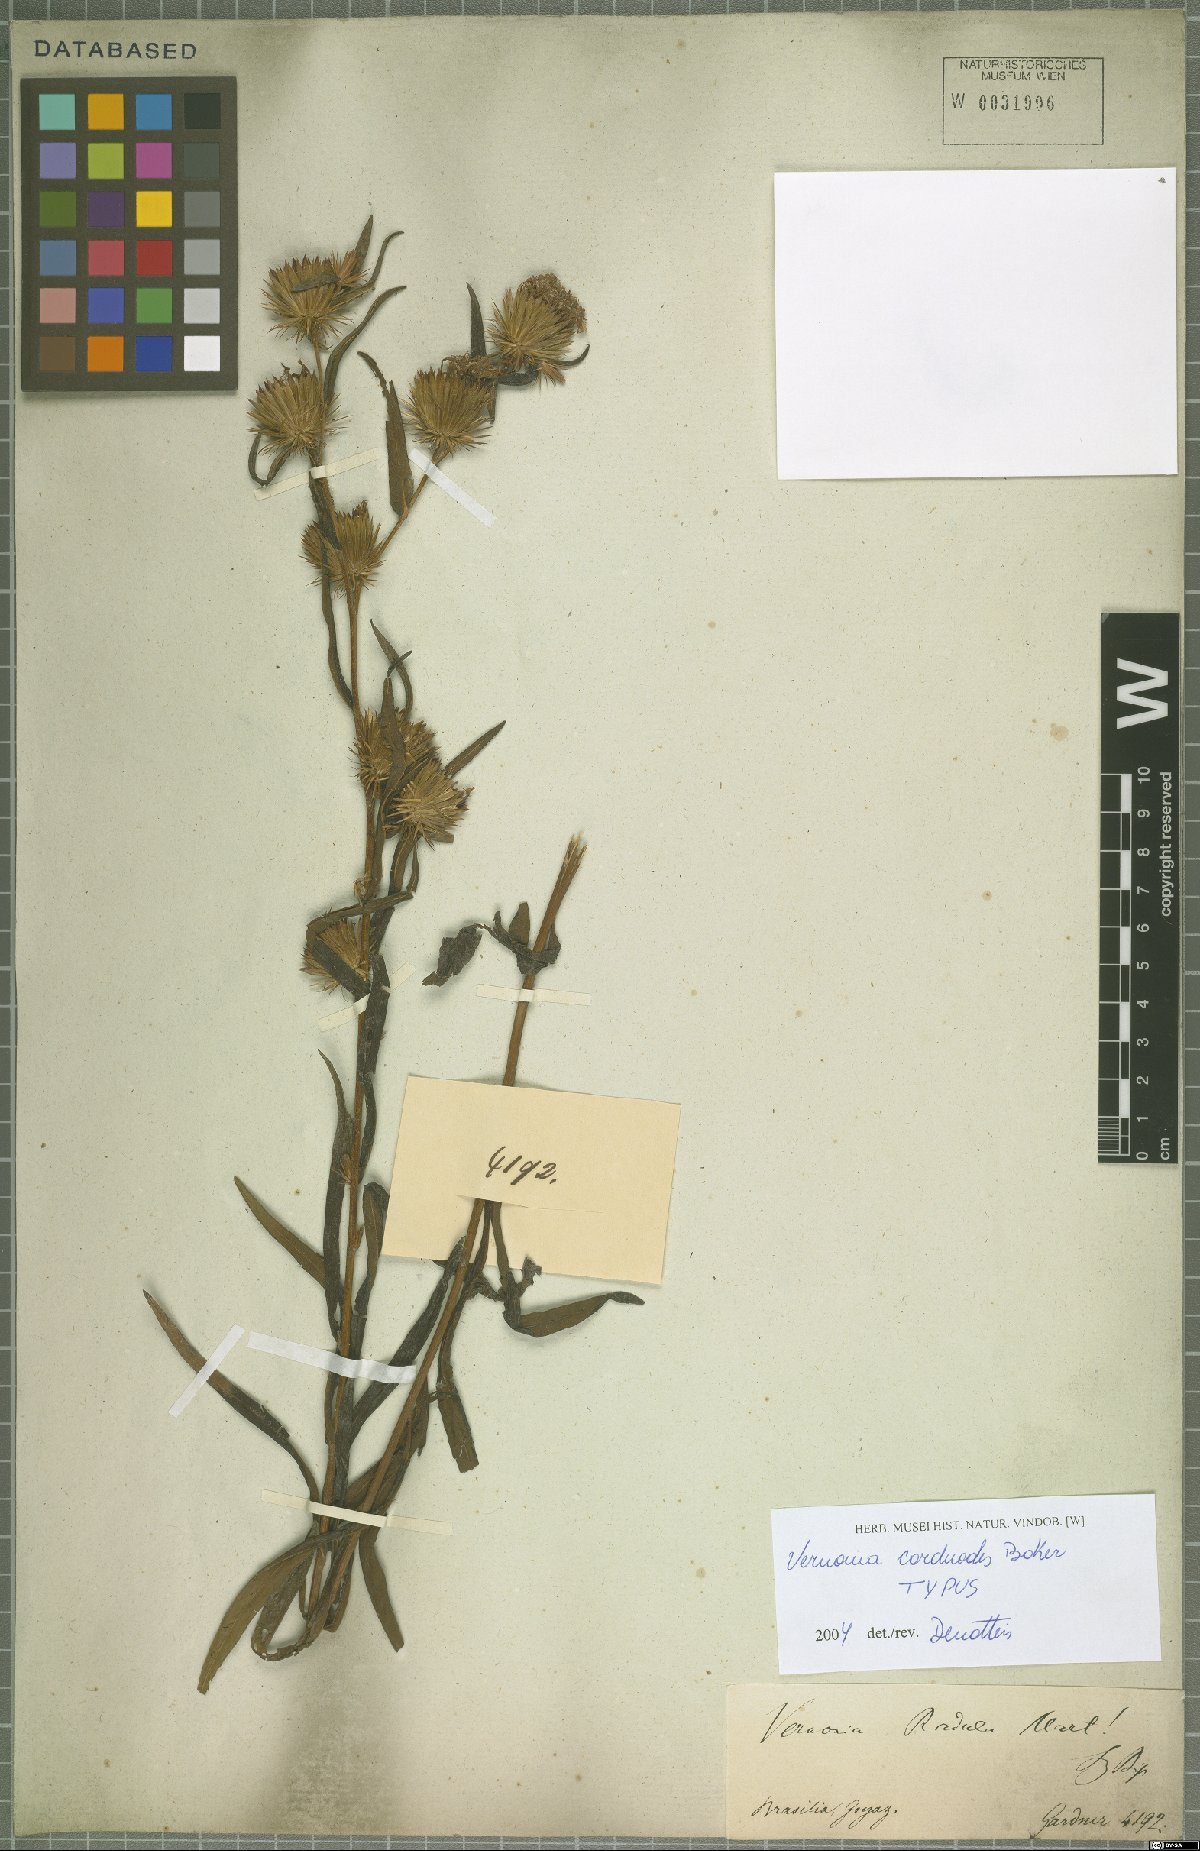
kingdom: Plantae
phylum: Tracheophyta
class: Magnoliopsida
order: Asterales
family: Asteraceae
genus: Lessingianthus
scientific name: Lessingianthus carduoides
